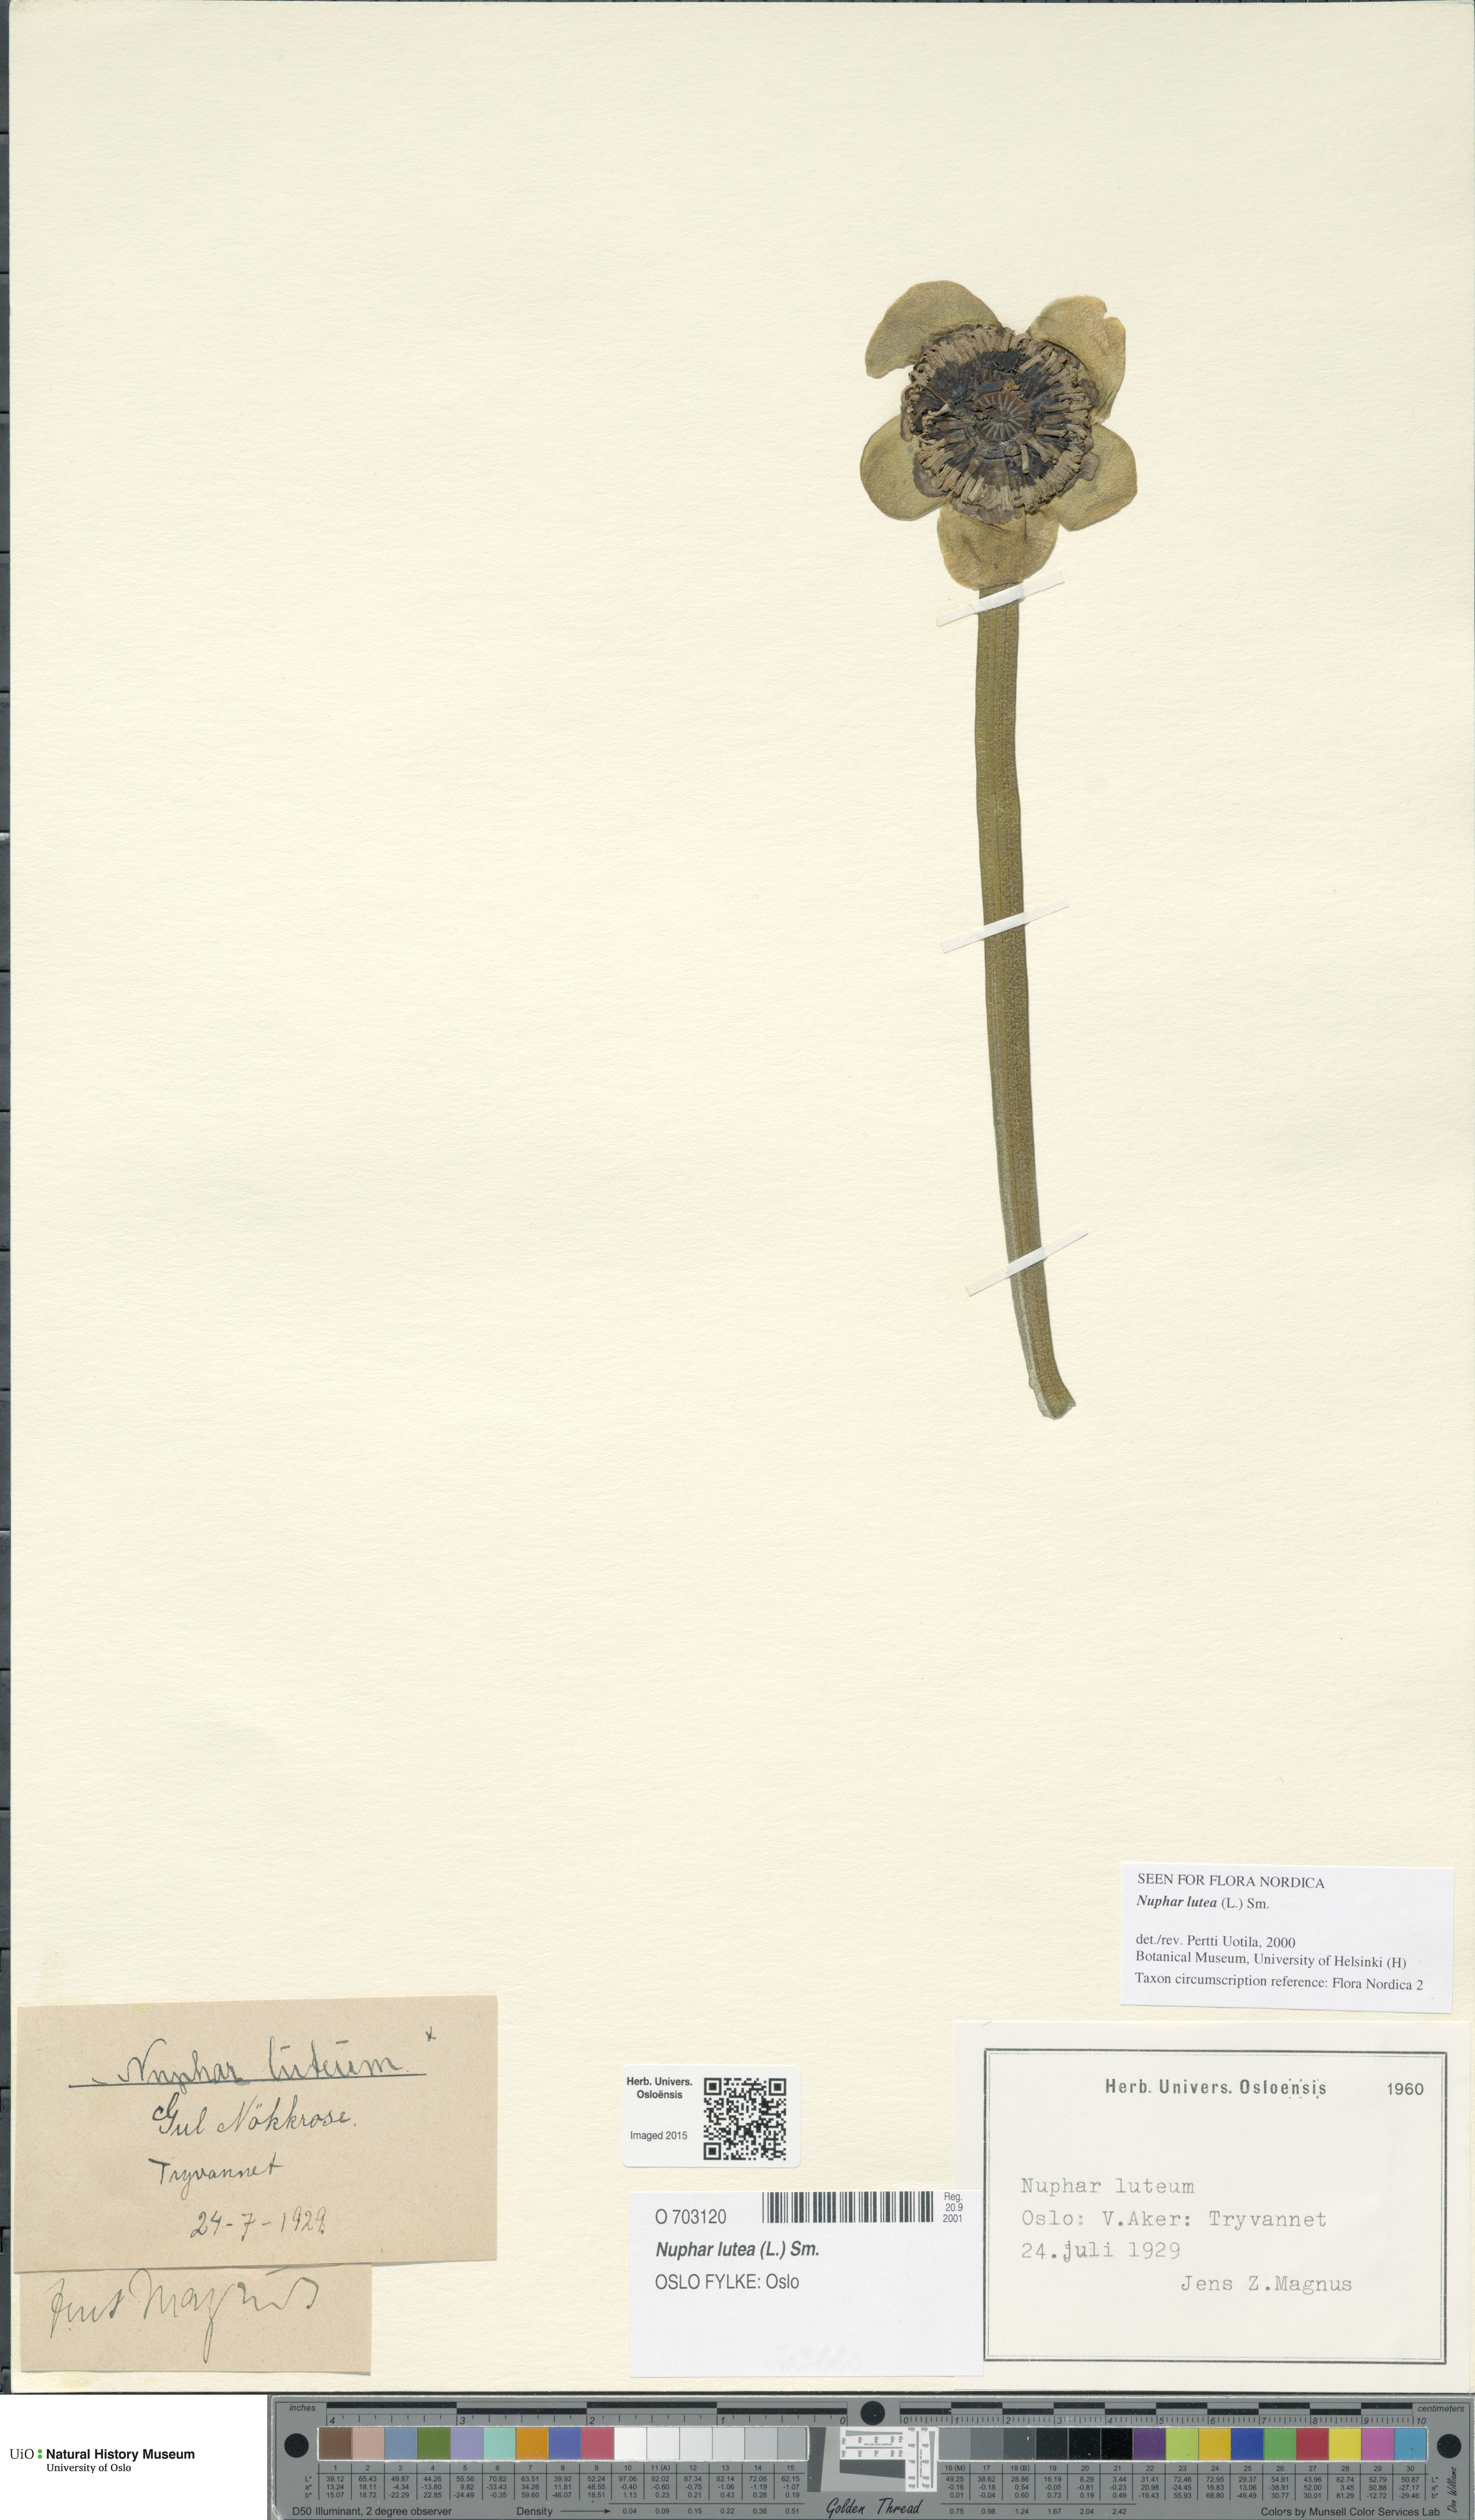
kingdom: Plantae
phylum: Tracheophyta
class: Magnoliopsida
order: Nymphaeales
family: Nymphaeaceae
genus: Nuphar
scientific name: Nuphar lutea
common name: Yellow water-lily
